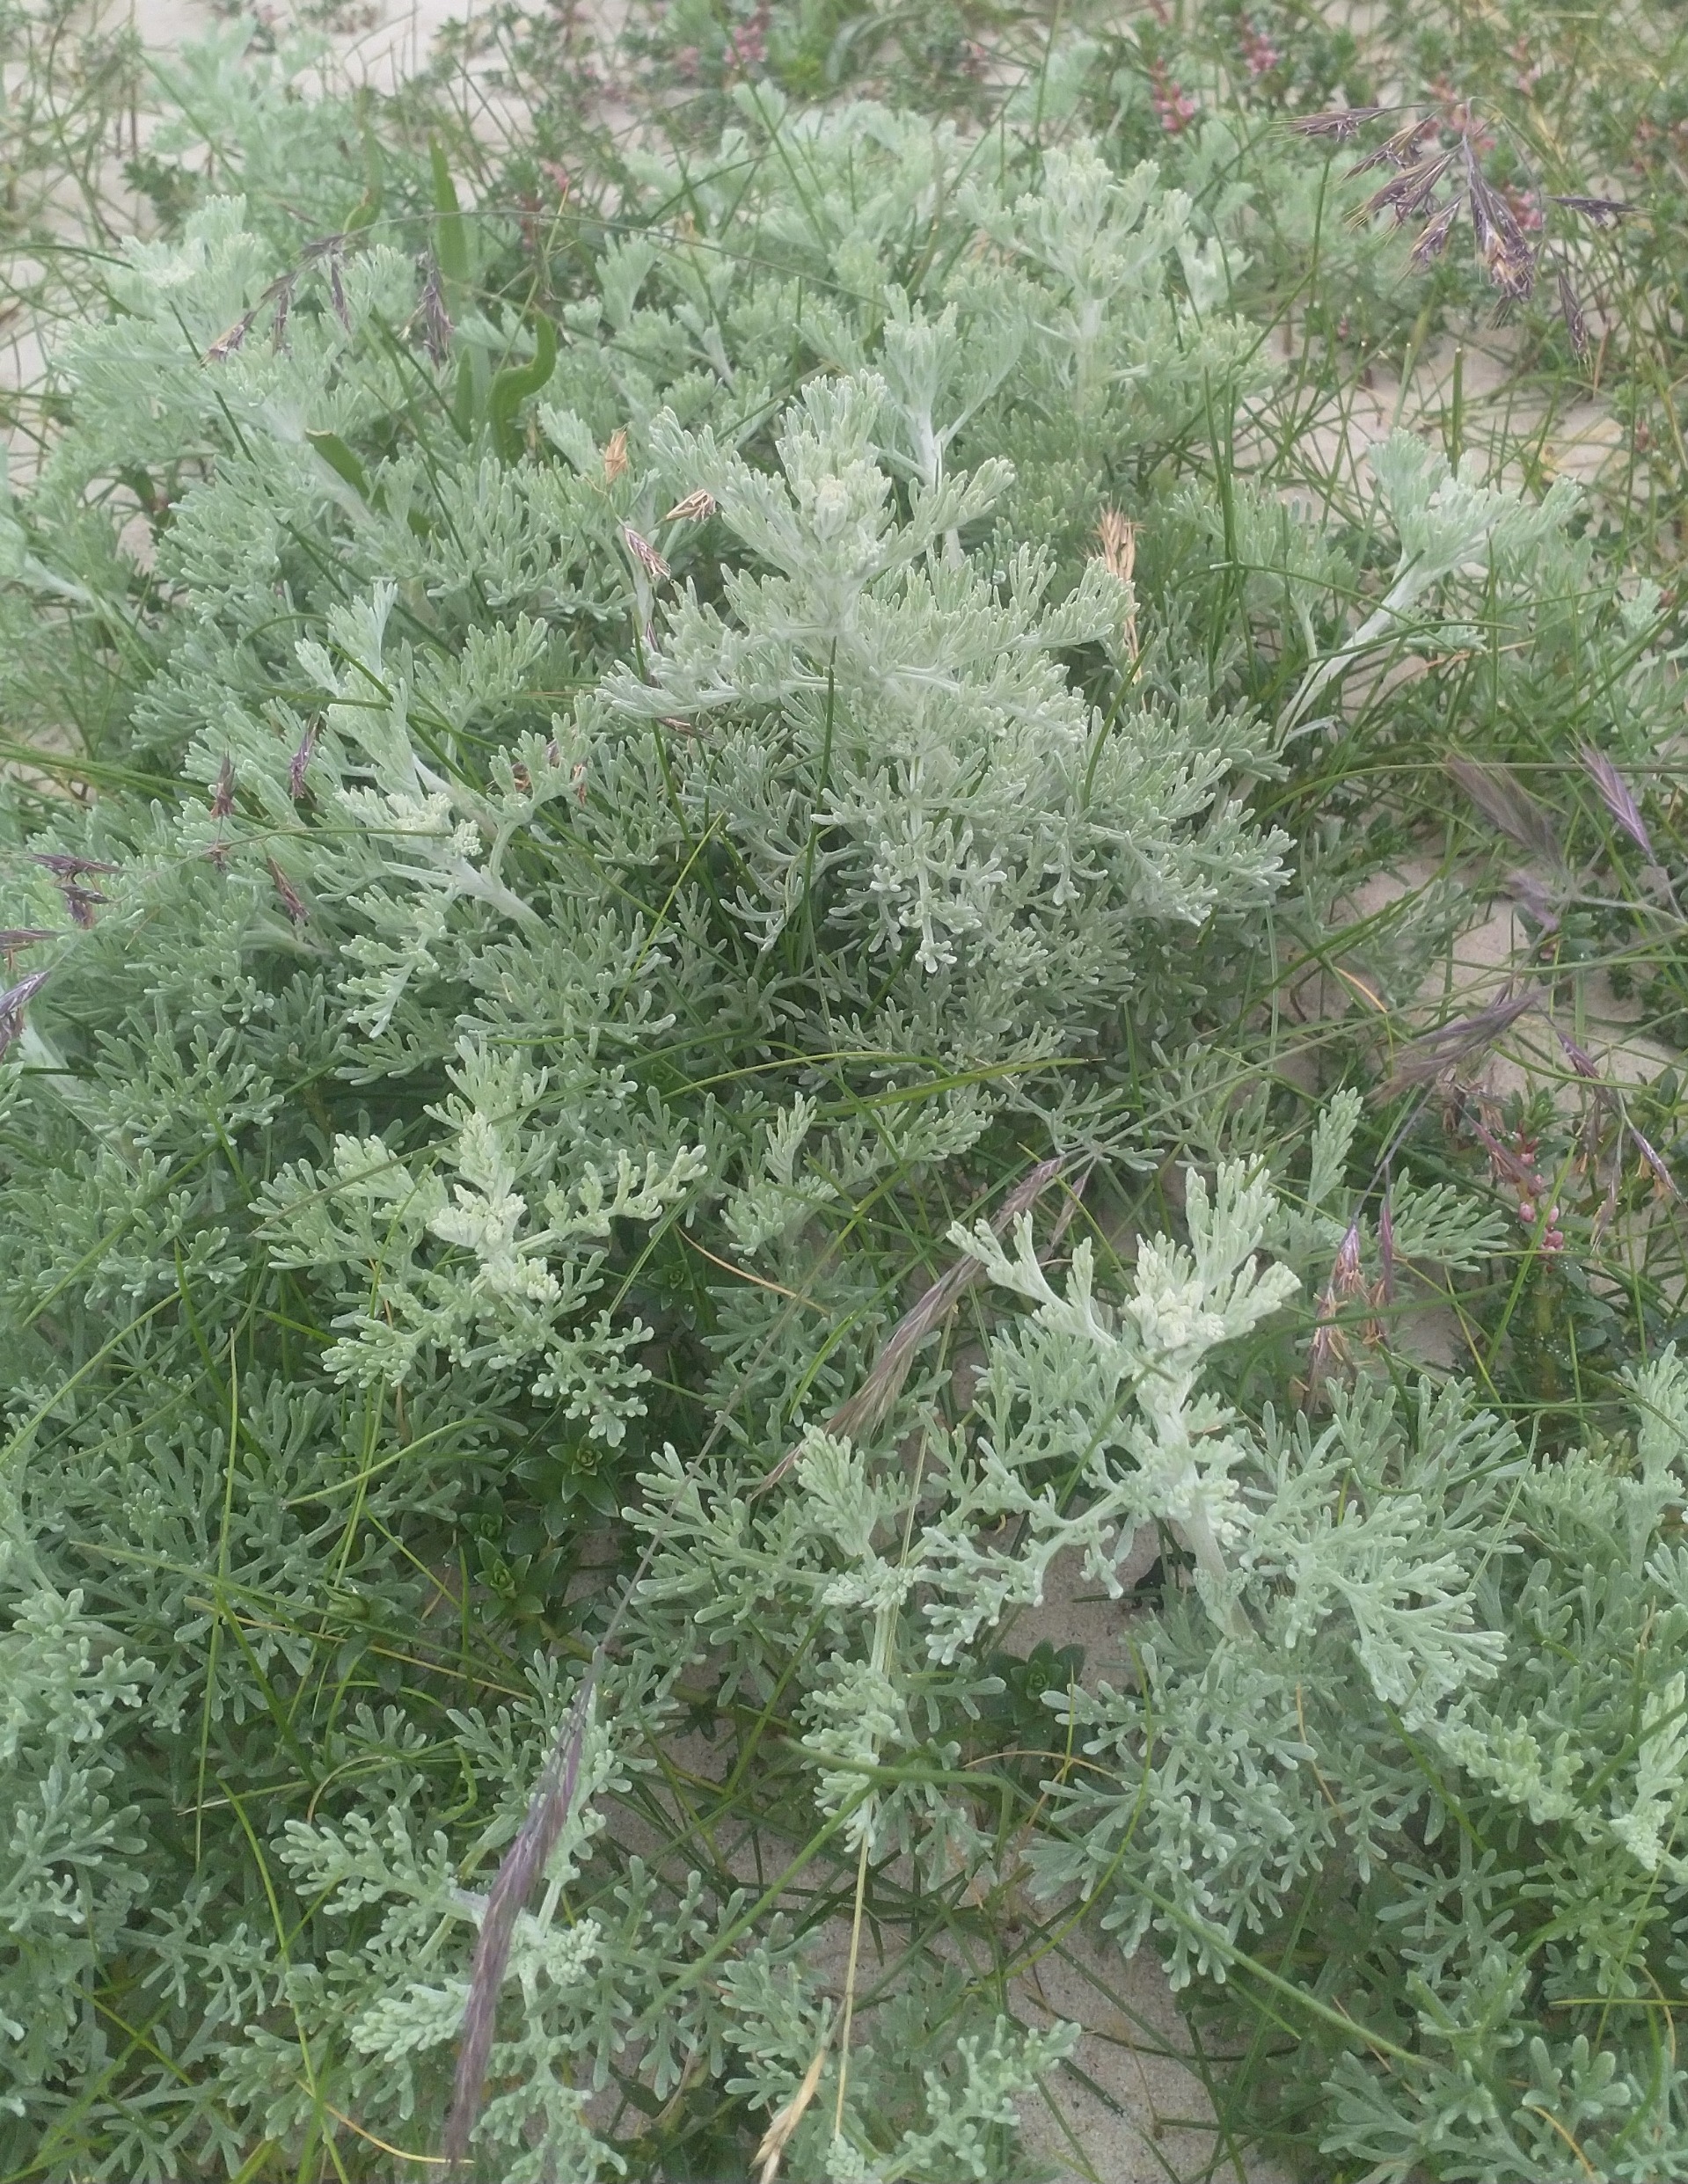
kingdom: Plantae
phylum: Tracheophyta
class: Magnoliopsida
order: Asterales
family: Asteraceae
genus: Artemisia
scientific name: Artemisia maritima
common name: Strandmalurt
